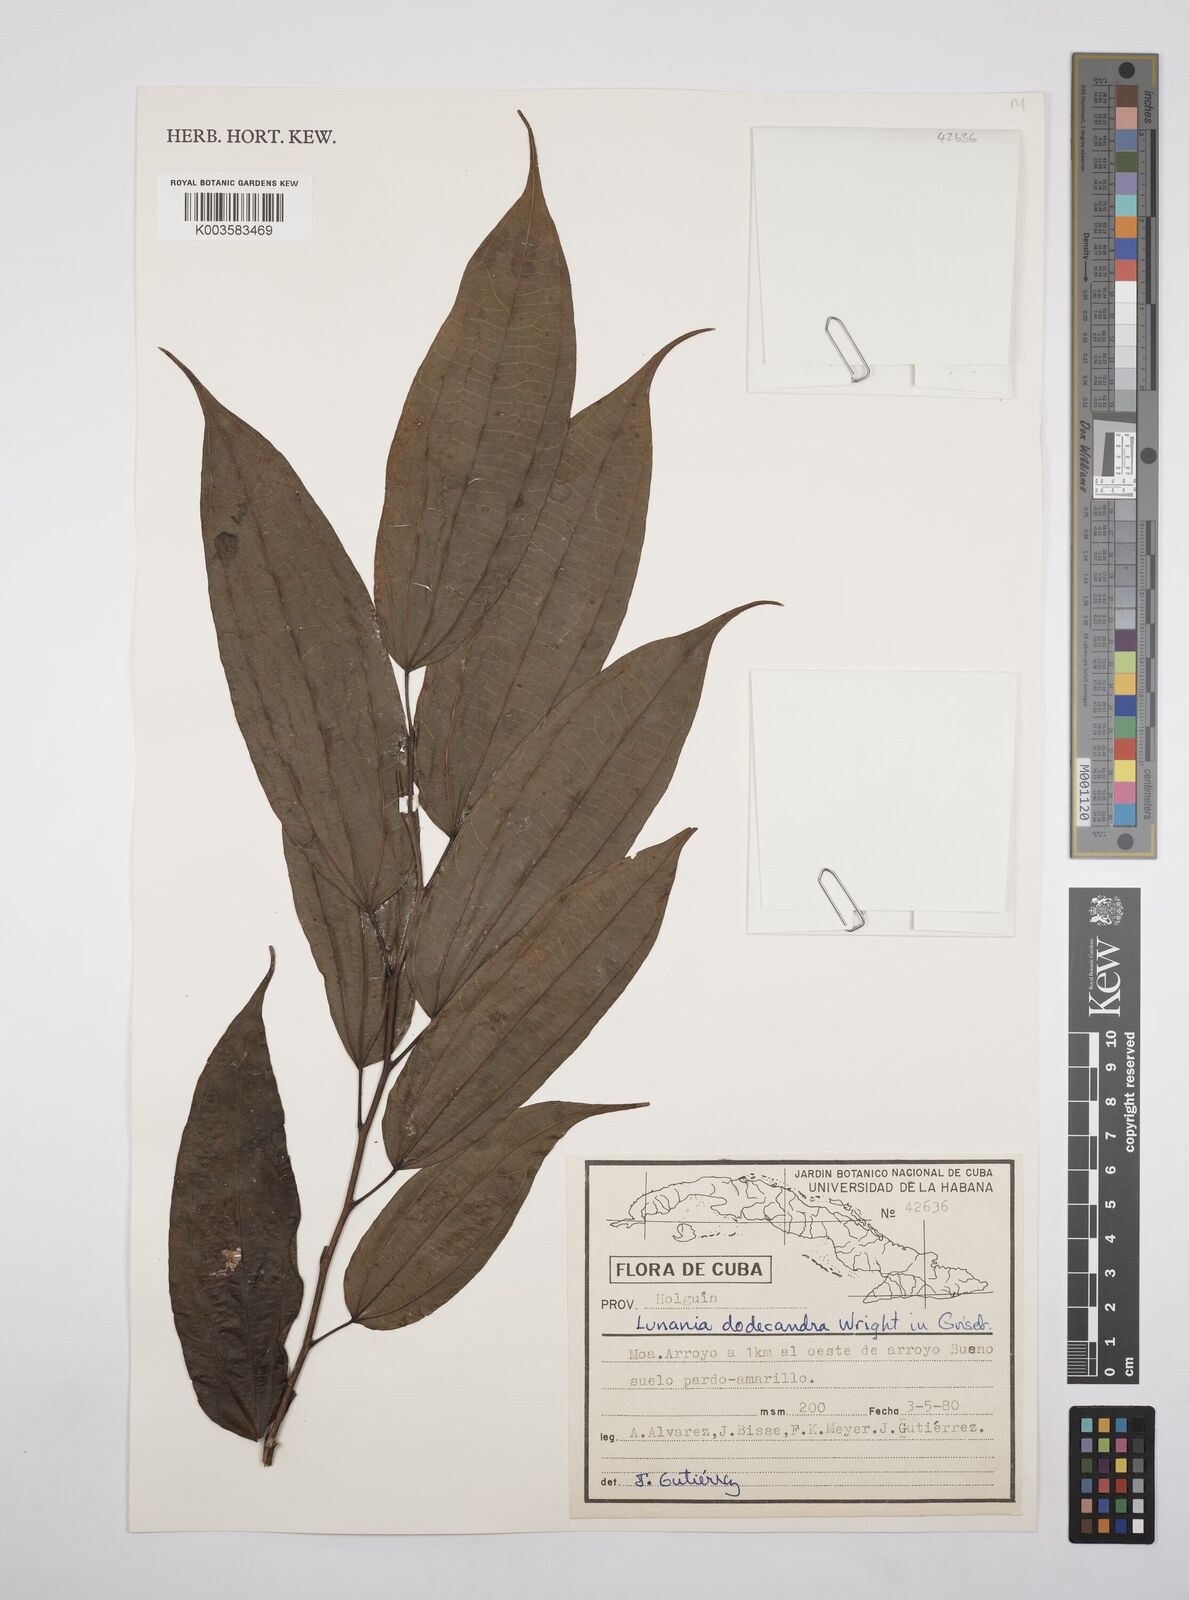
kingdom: Plantae
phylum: Tracheophyta
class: Magnoliopsida
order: Malpighiales
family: Salicaceae
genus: Lunania
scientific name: Lunania dodecandra
